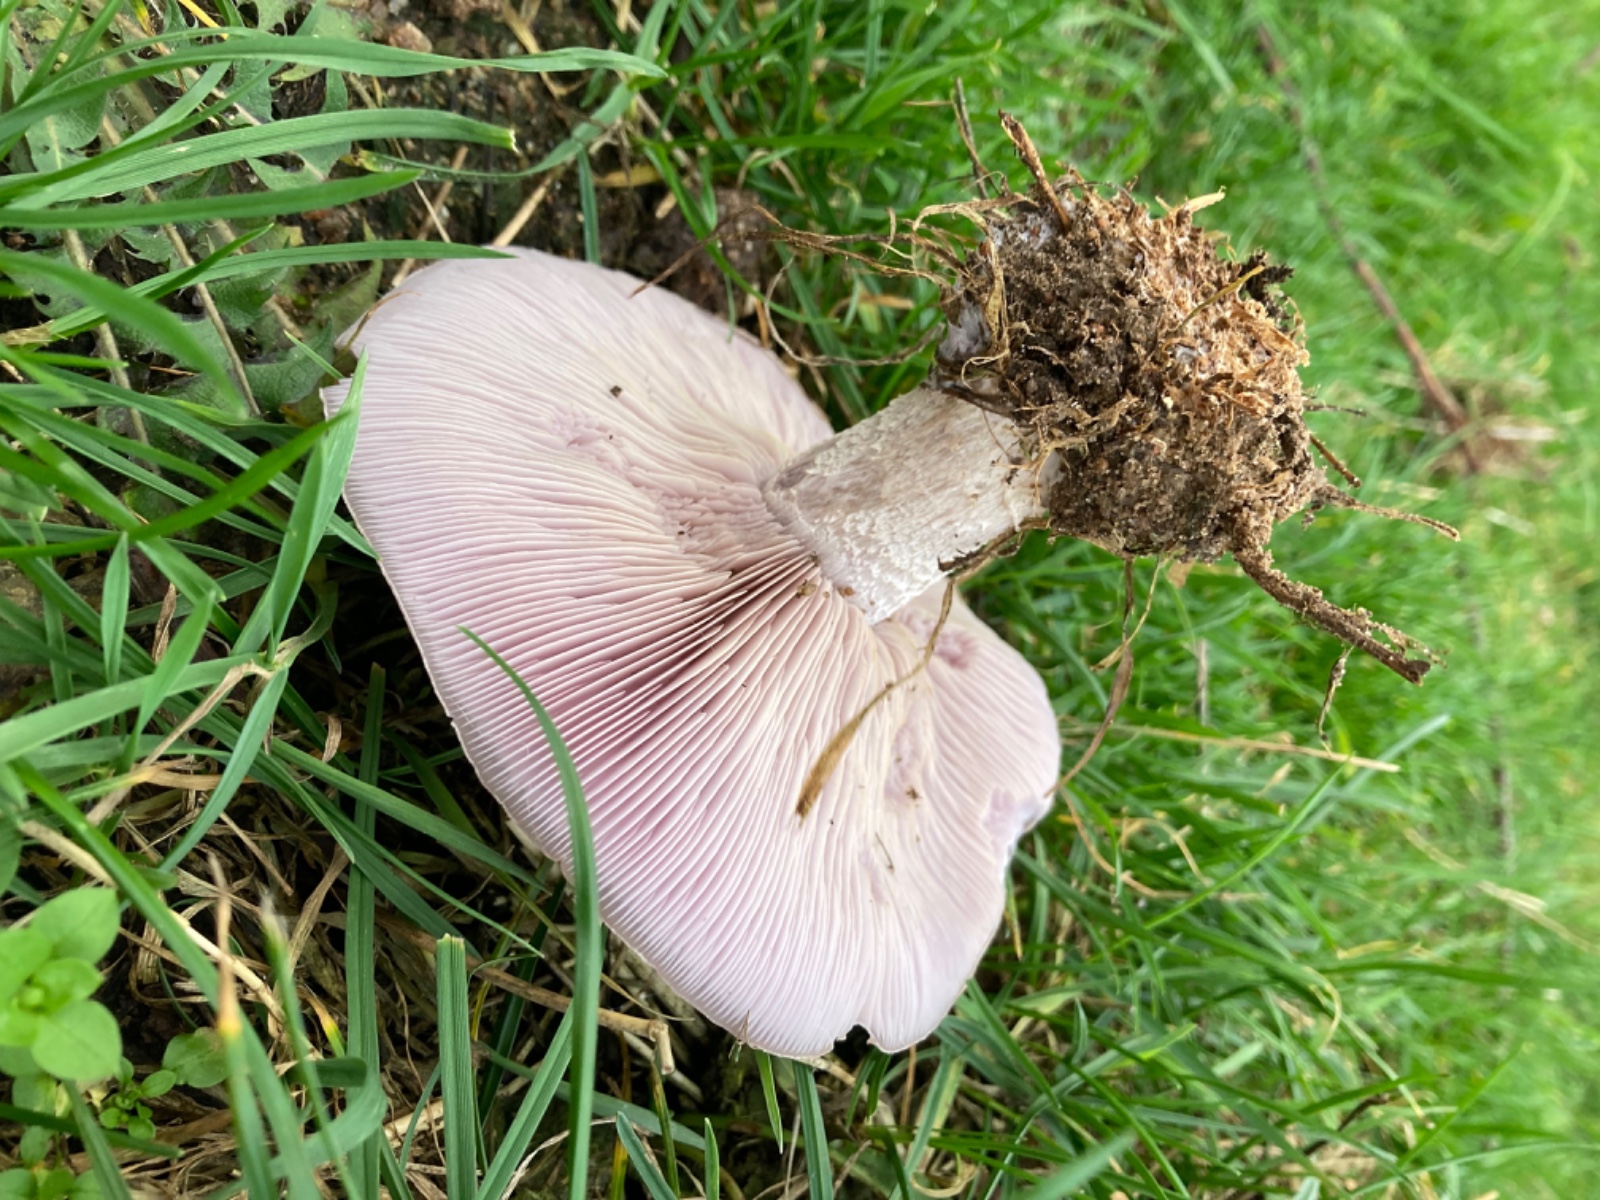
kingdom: Fungi
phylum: Basidiomycota
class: Agaricomycetes
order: Agaricales
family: Tricholomataceae
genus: Lepista
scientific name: Lepista nuda
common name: violet hekseringshat
